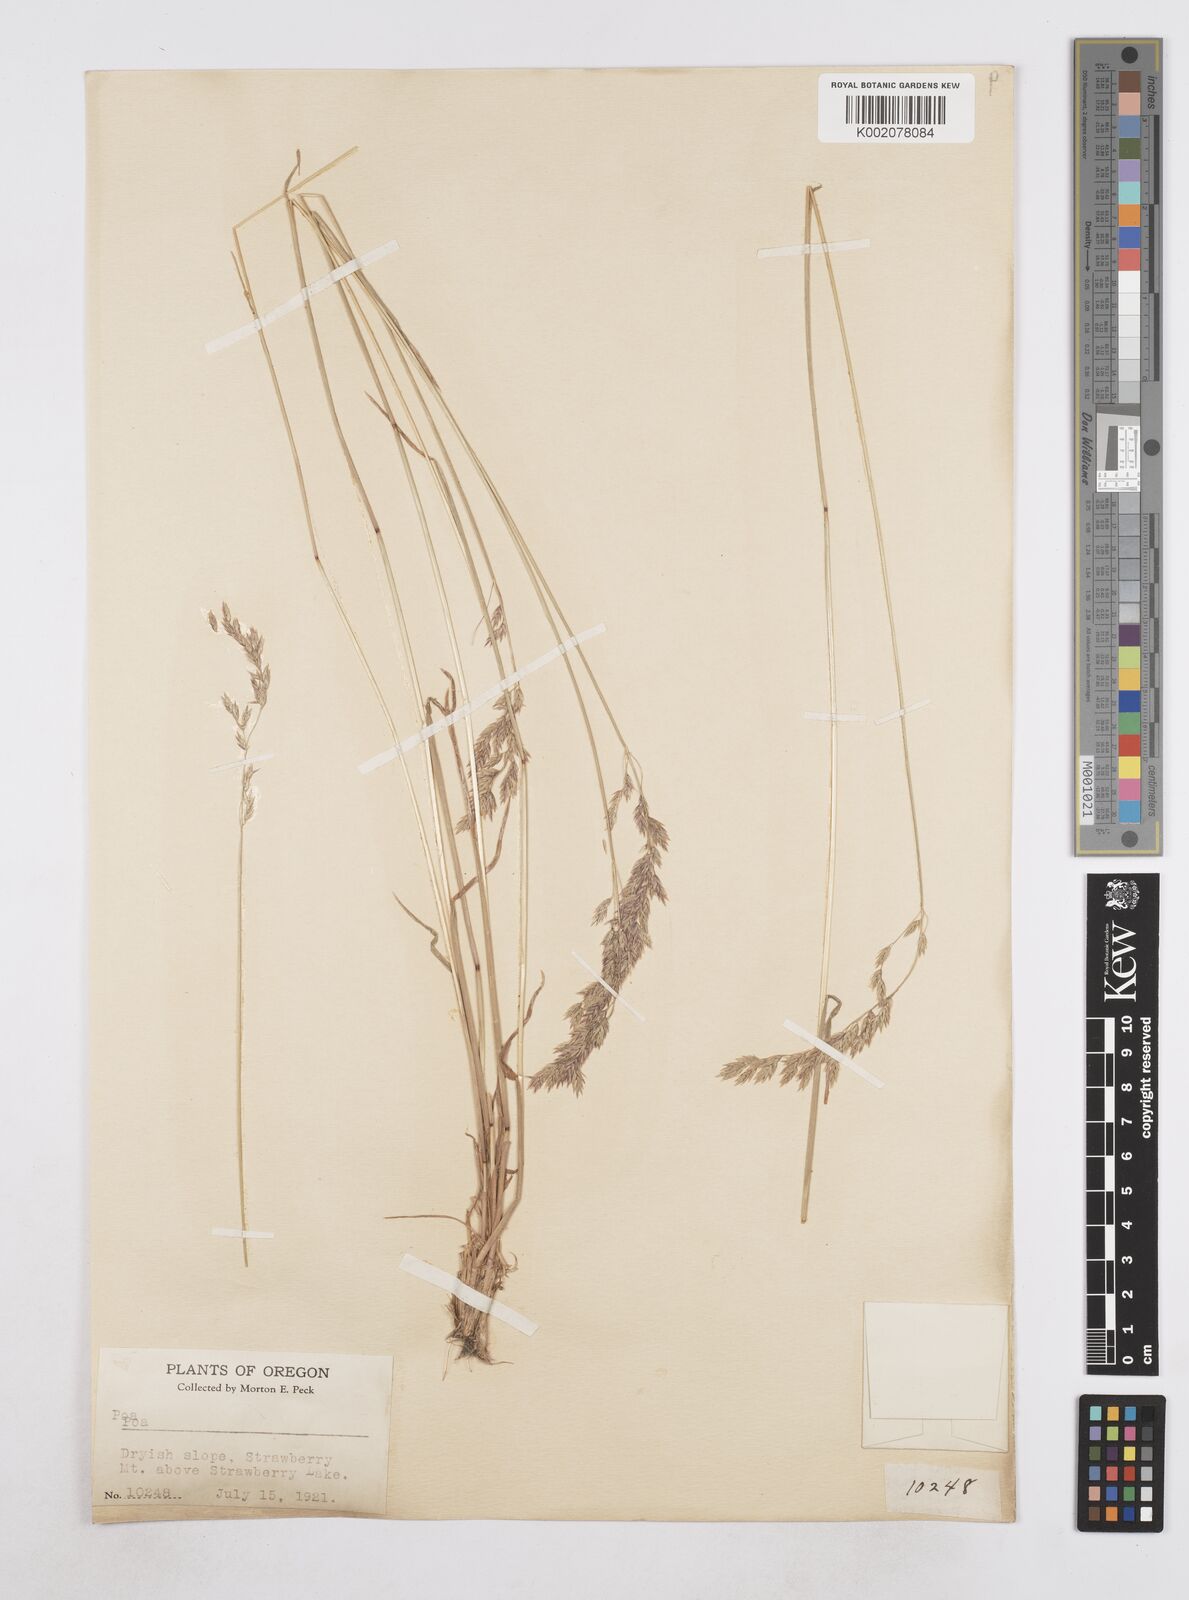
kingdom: Plantae
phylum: Tracheophyta
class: Liliopsida
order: Poales
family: Poaceae
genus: Poa
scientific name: Poa
